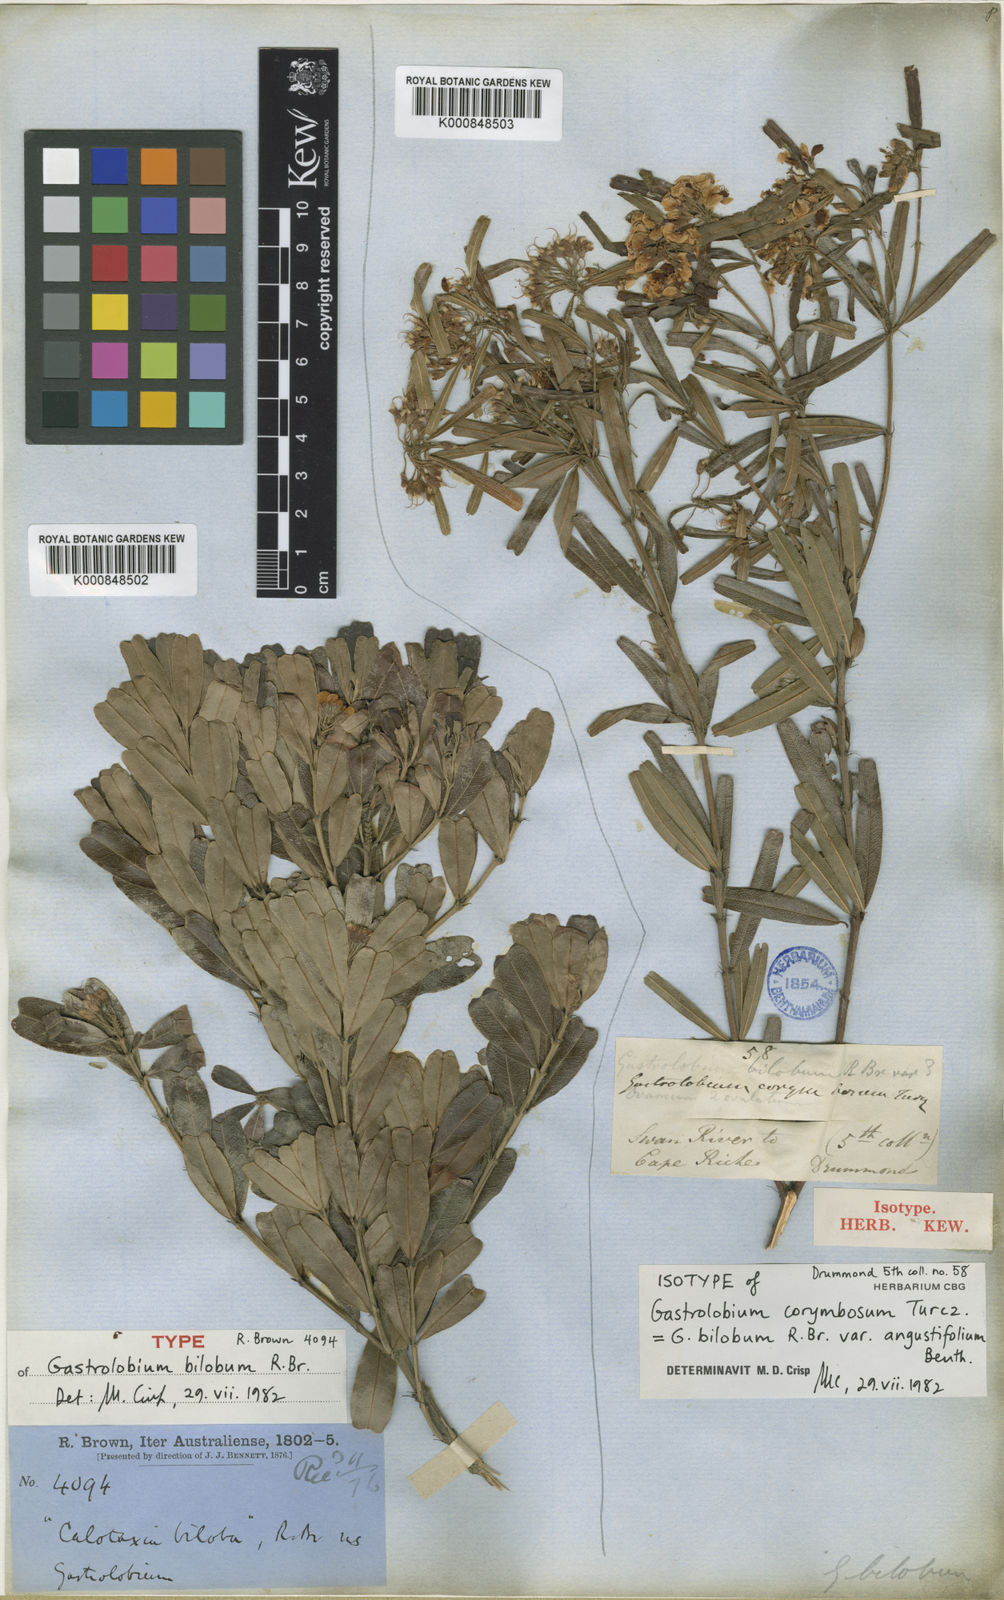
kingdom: Plantae
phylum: Tracheophyta
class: Magnoliopsida
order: Fabales
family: Fabaceae
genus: Gastrolobium
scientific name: Gastrolobium bilobum
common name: Heart-leaf poisonbush
